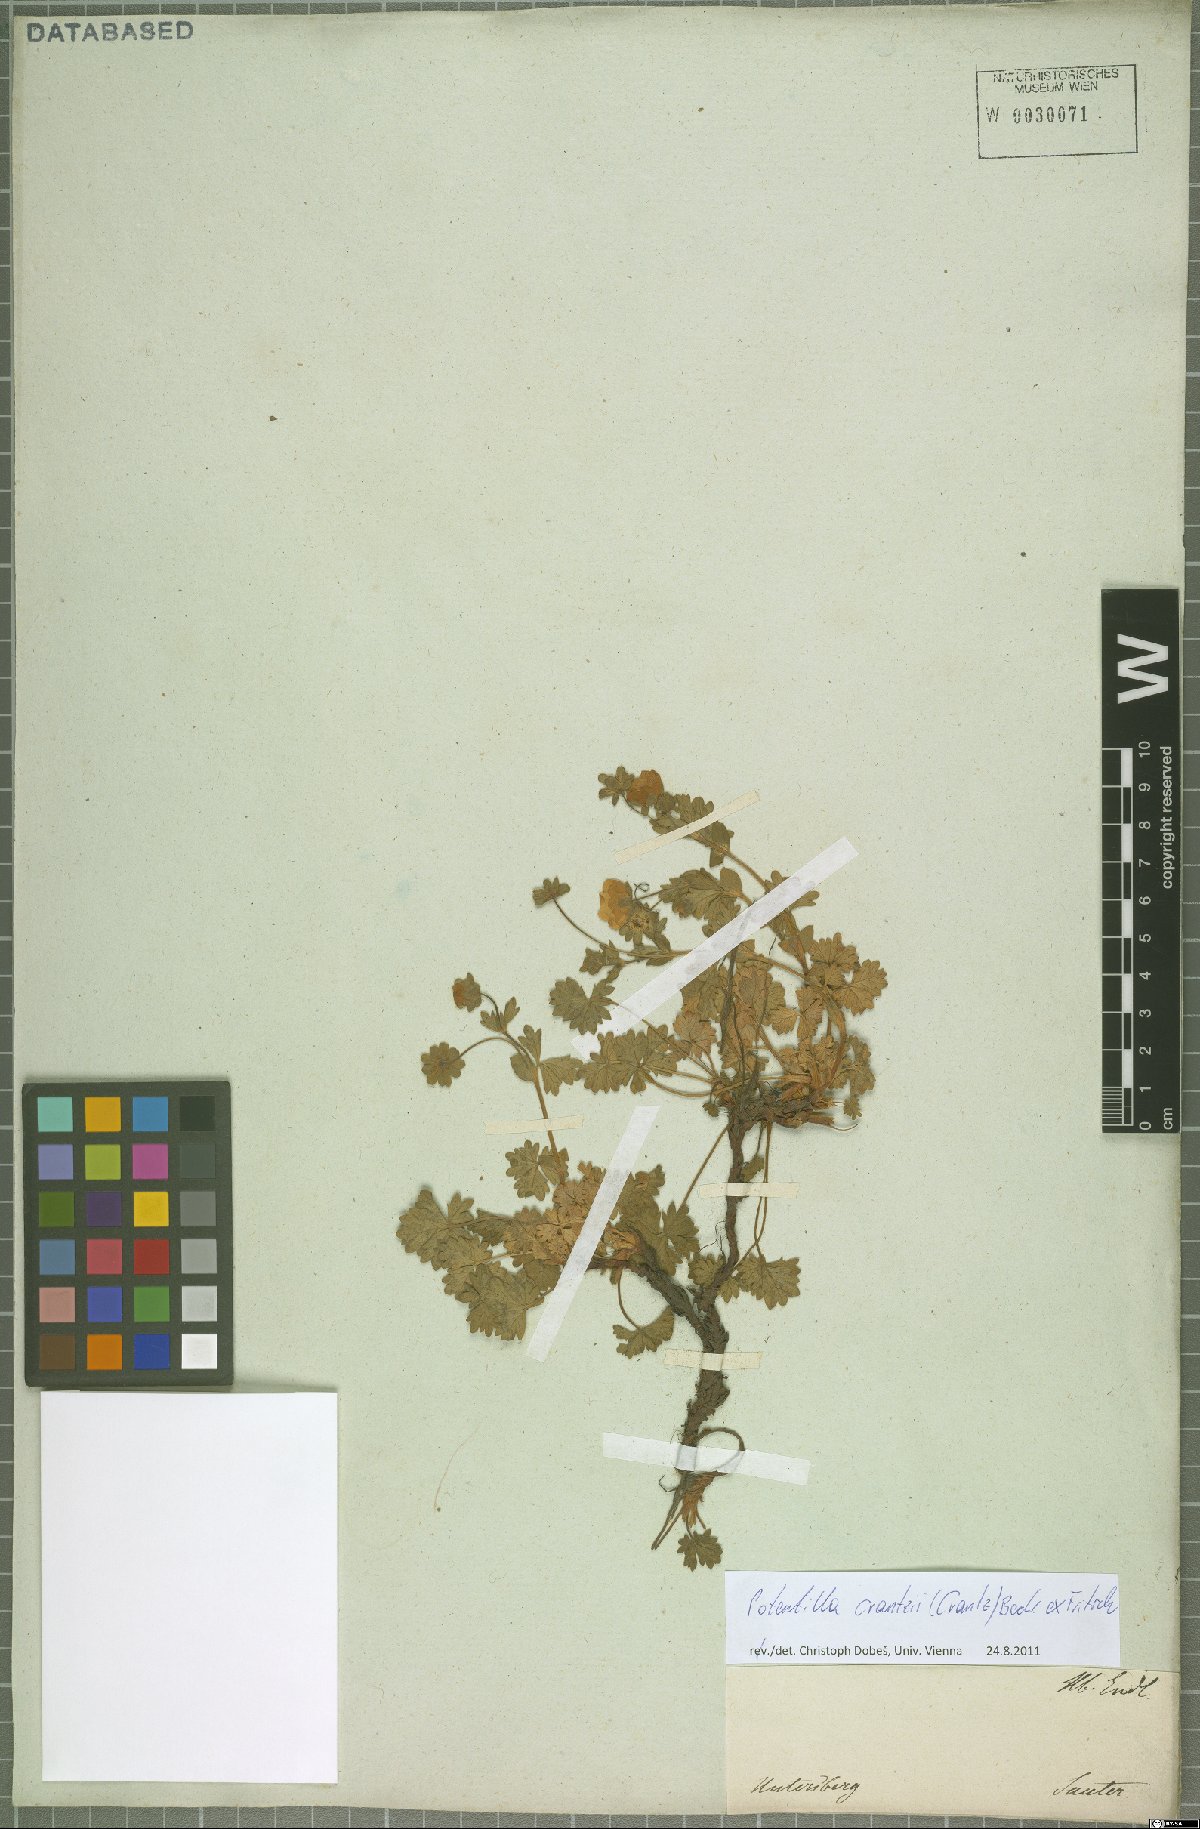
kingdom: Plantae
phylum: Tracheophyta
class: Magnoliopsida
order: Rosales
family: Rosaceae
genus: Potentilla
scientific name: Potentilla crantzii
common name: Alpine cinquefoil
